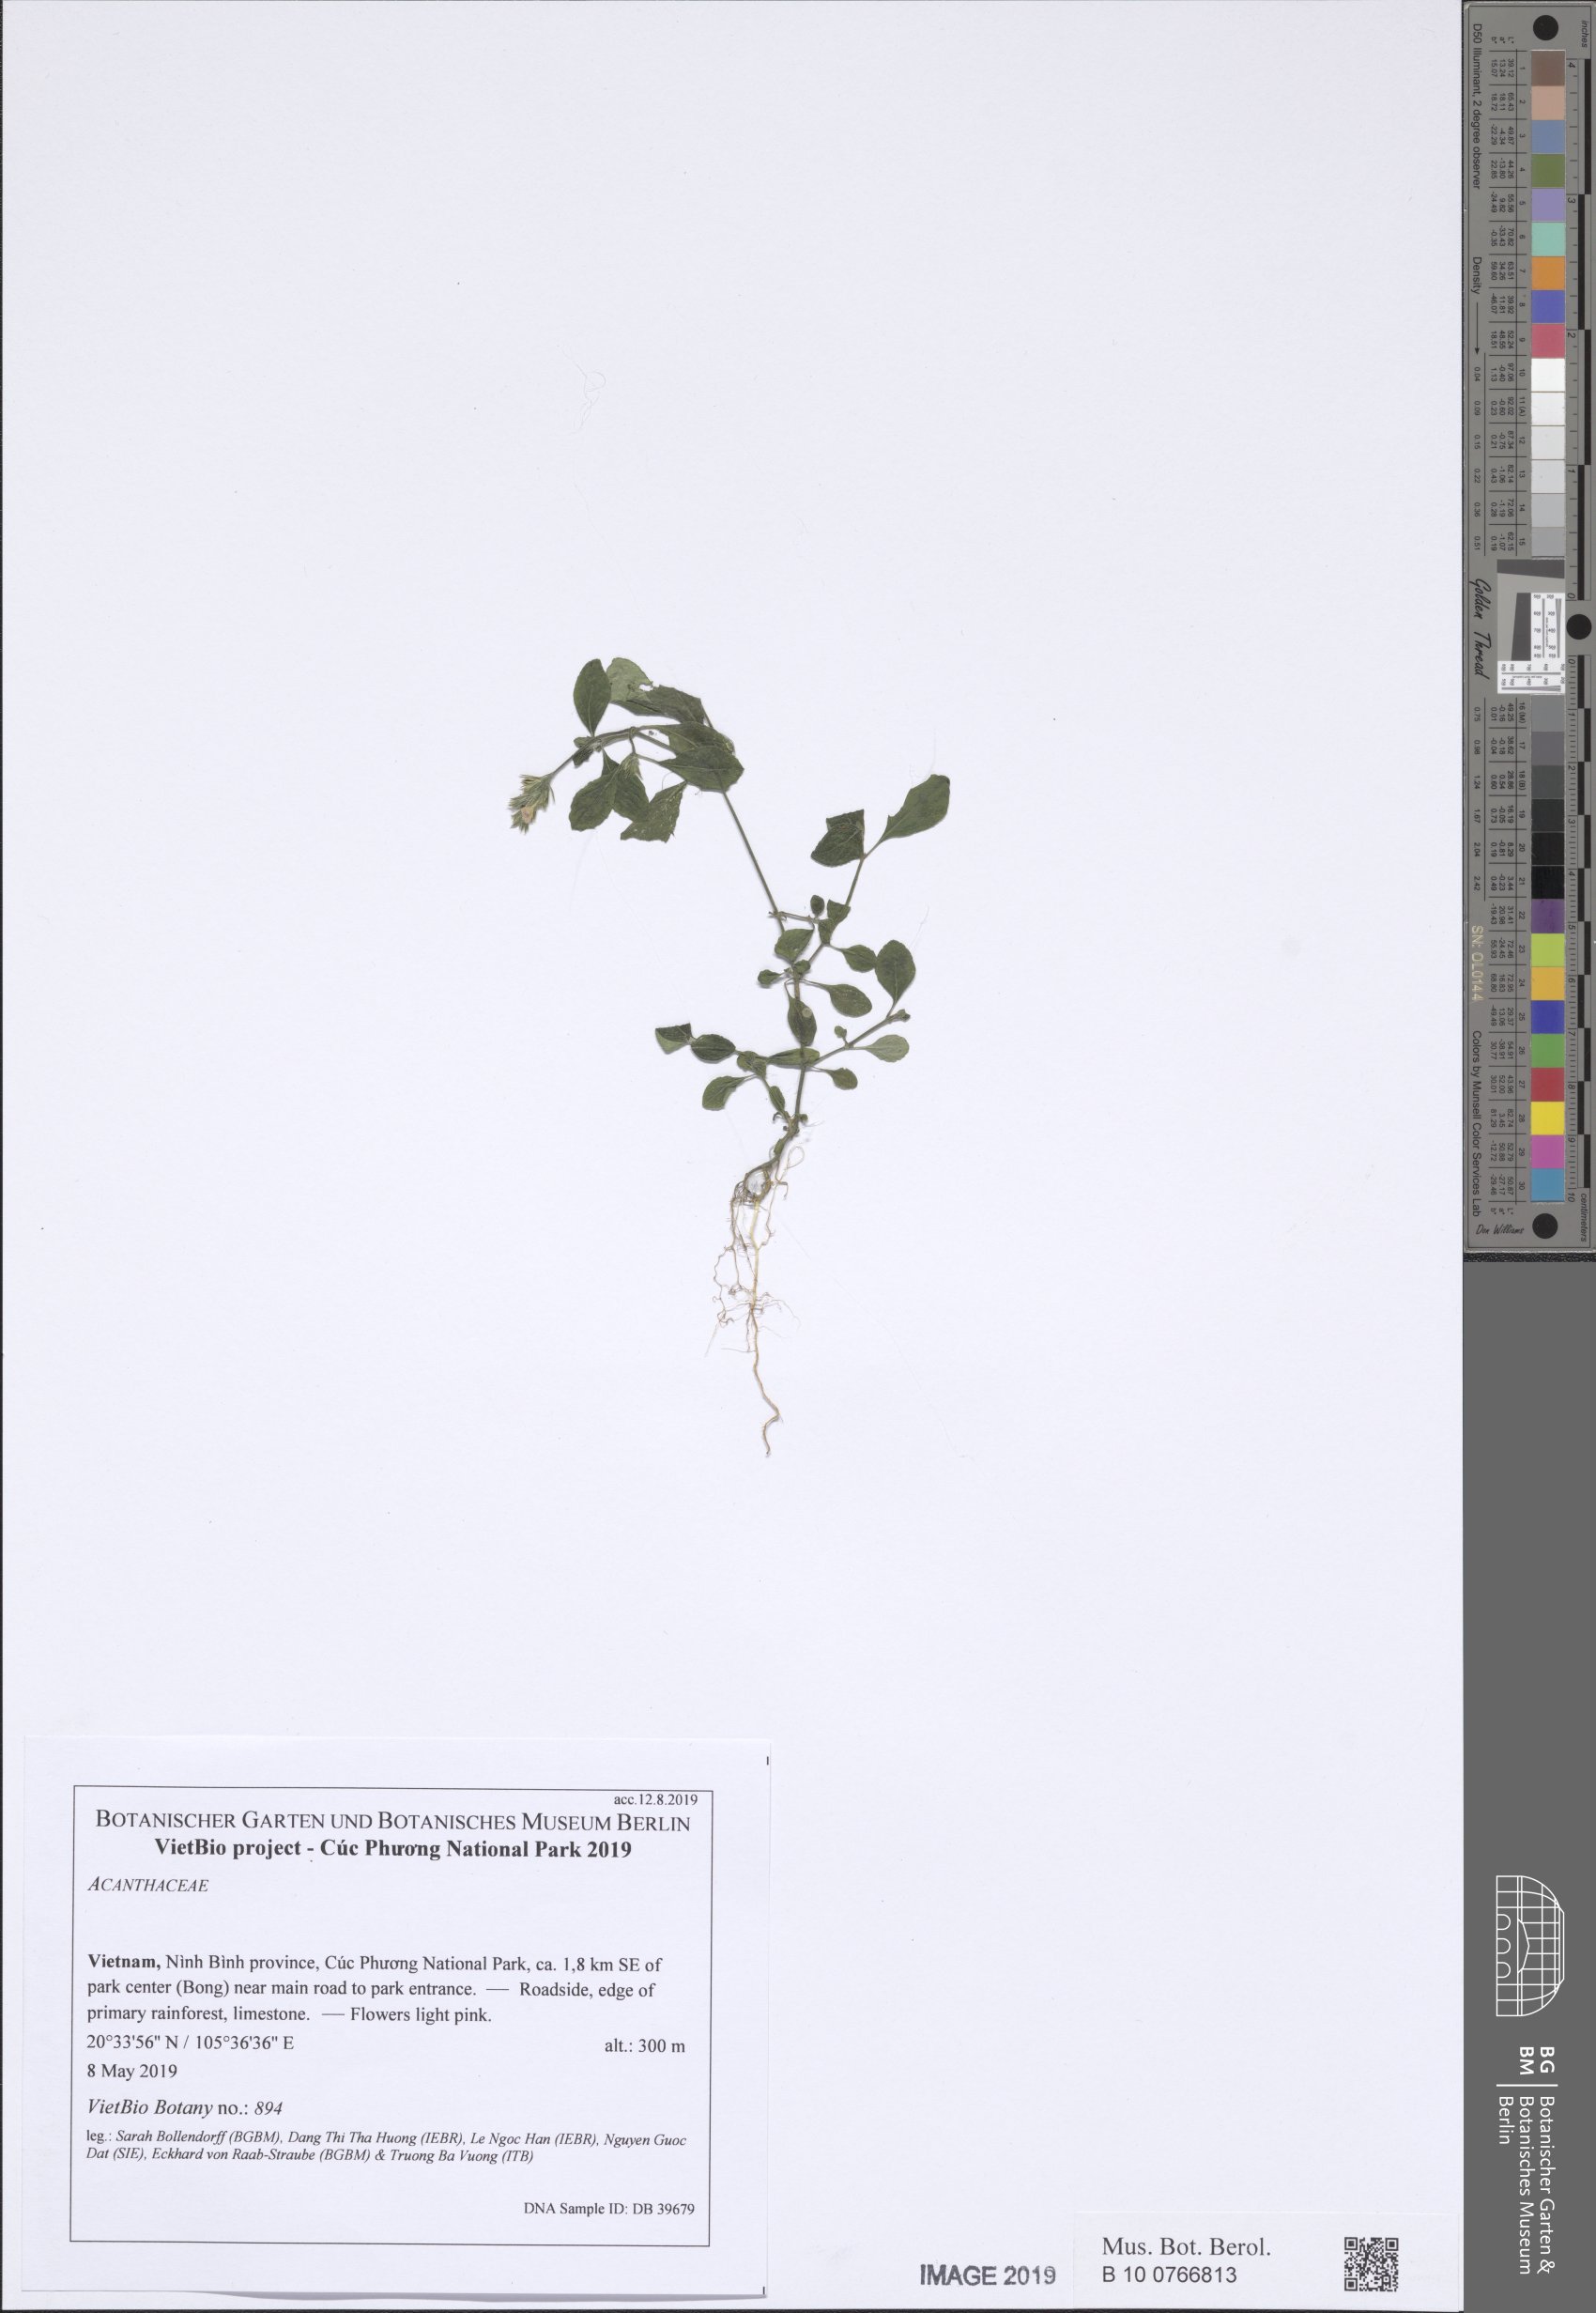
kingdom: Plantae
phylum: Tracheophyta
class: Magnoliopsida
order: Lamiales
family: Acanthaceae
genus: Lepidagathis
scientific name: Lepidagathis
